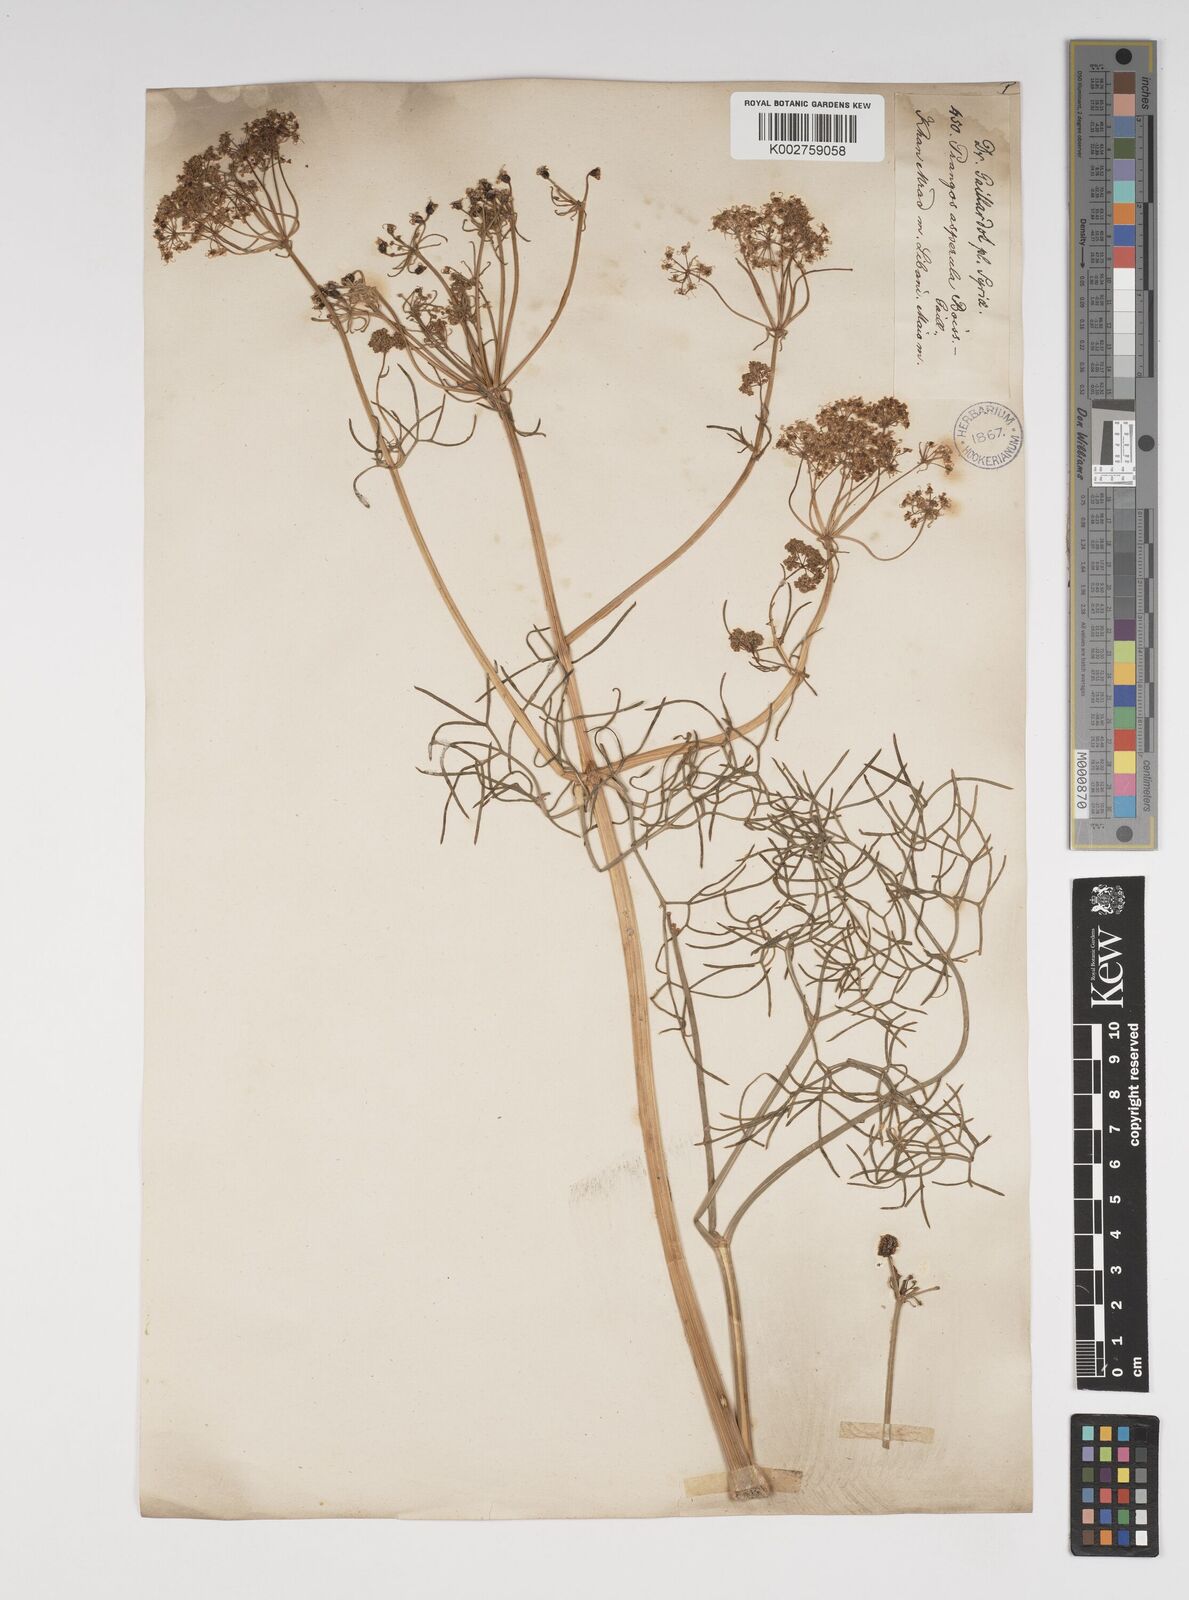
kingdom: Plantae
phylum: Tracheophyta
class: Magnoliopsida
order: Apiales
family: Apiaceae
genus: Prangos
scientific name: Prangos asperula
